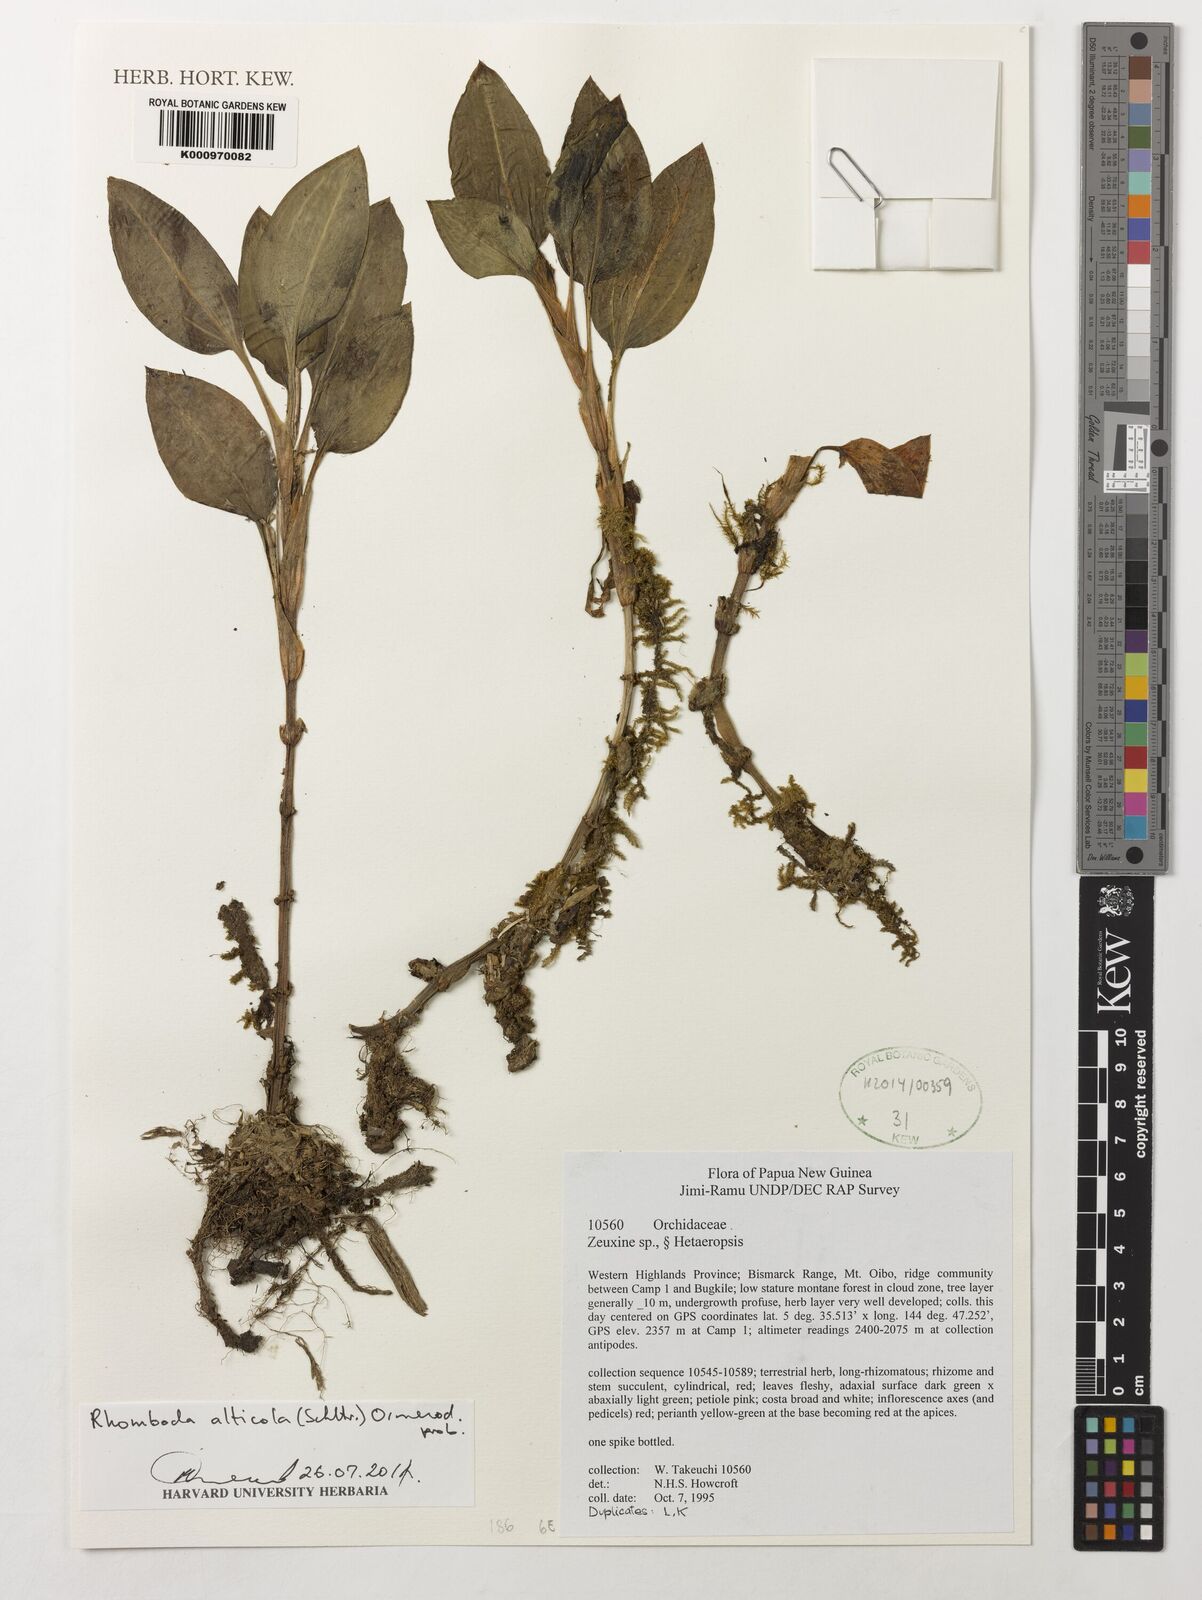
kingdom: Plantae
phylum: Tracheophyta
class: Liliopsida
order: Asparagales
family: Orchidaceae
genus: Rhomboda
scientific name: Rhomboda alticola
